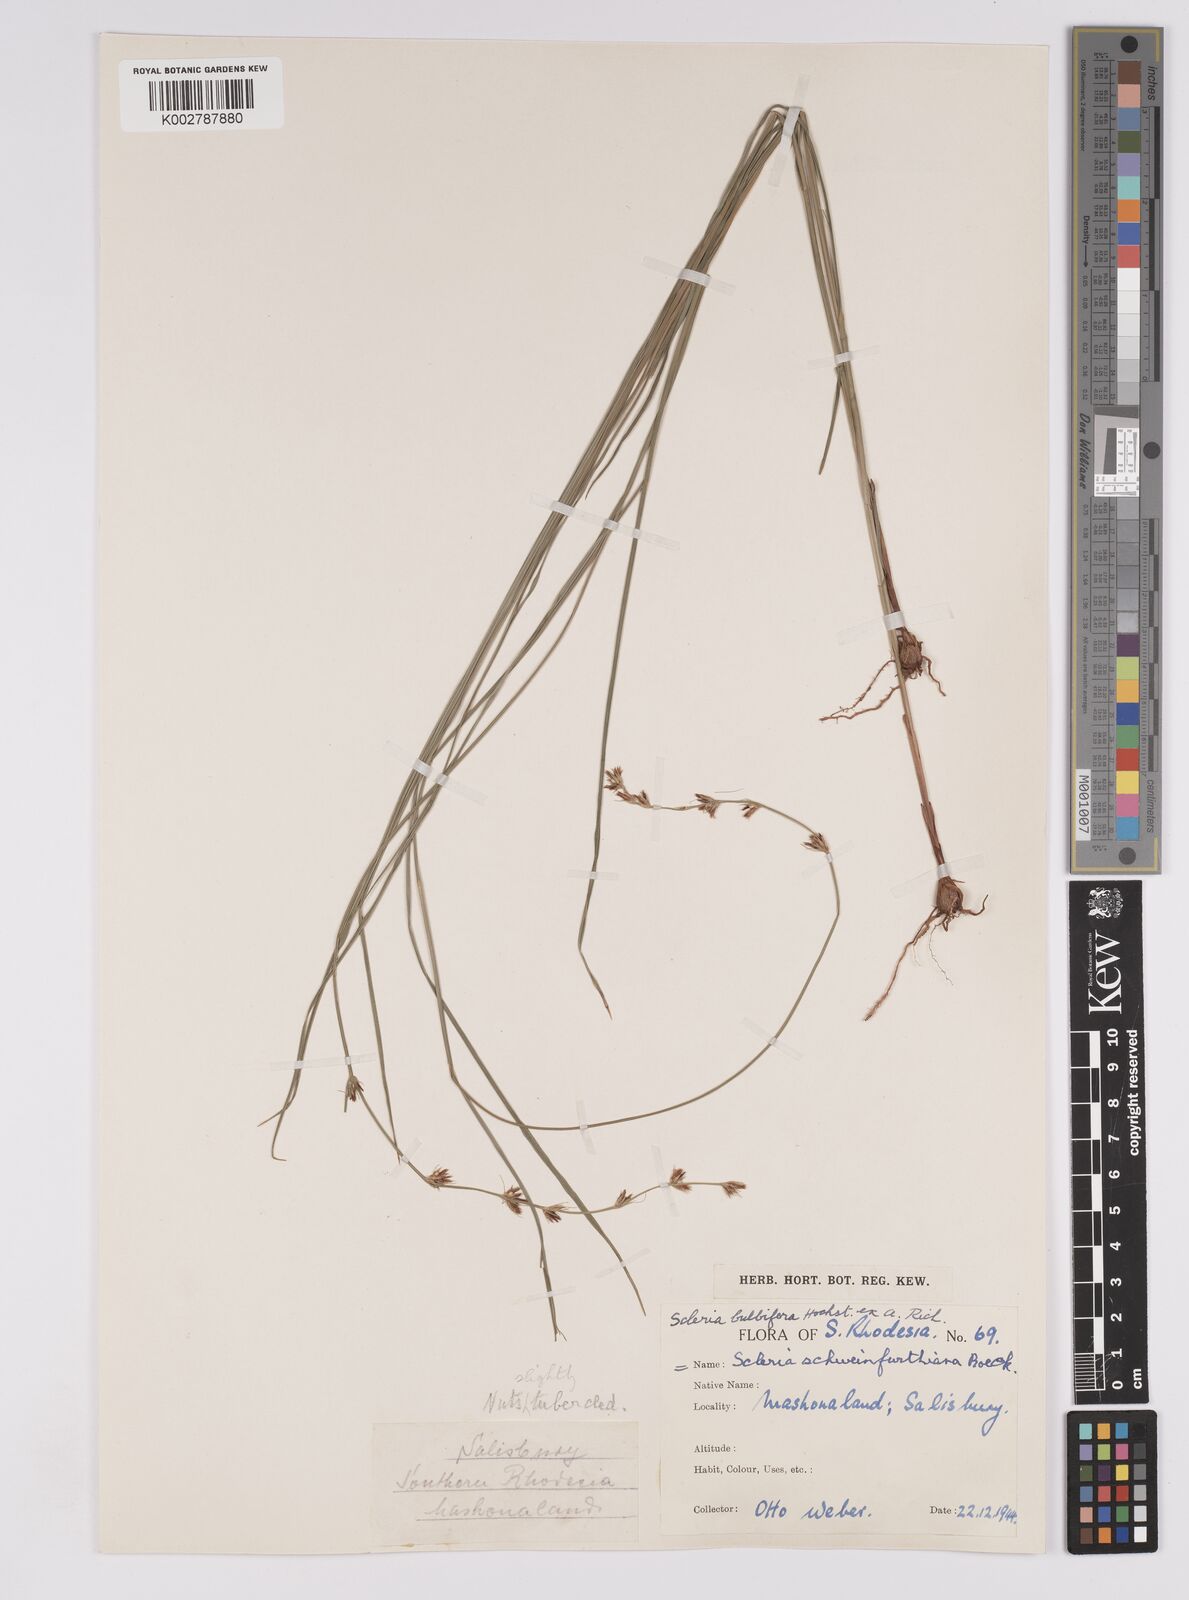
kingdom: Plantae
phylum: Tracheophyta
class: Liliopsida
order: Poales
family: Cyperaceae
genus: Scleria
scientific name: Scleria bulbifera
